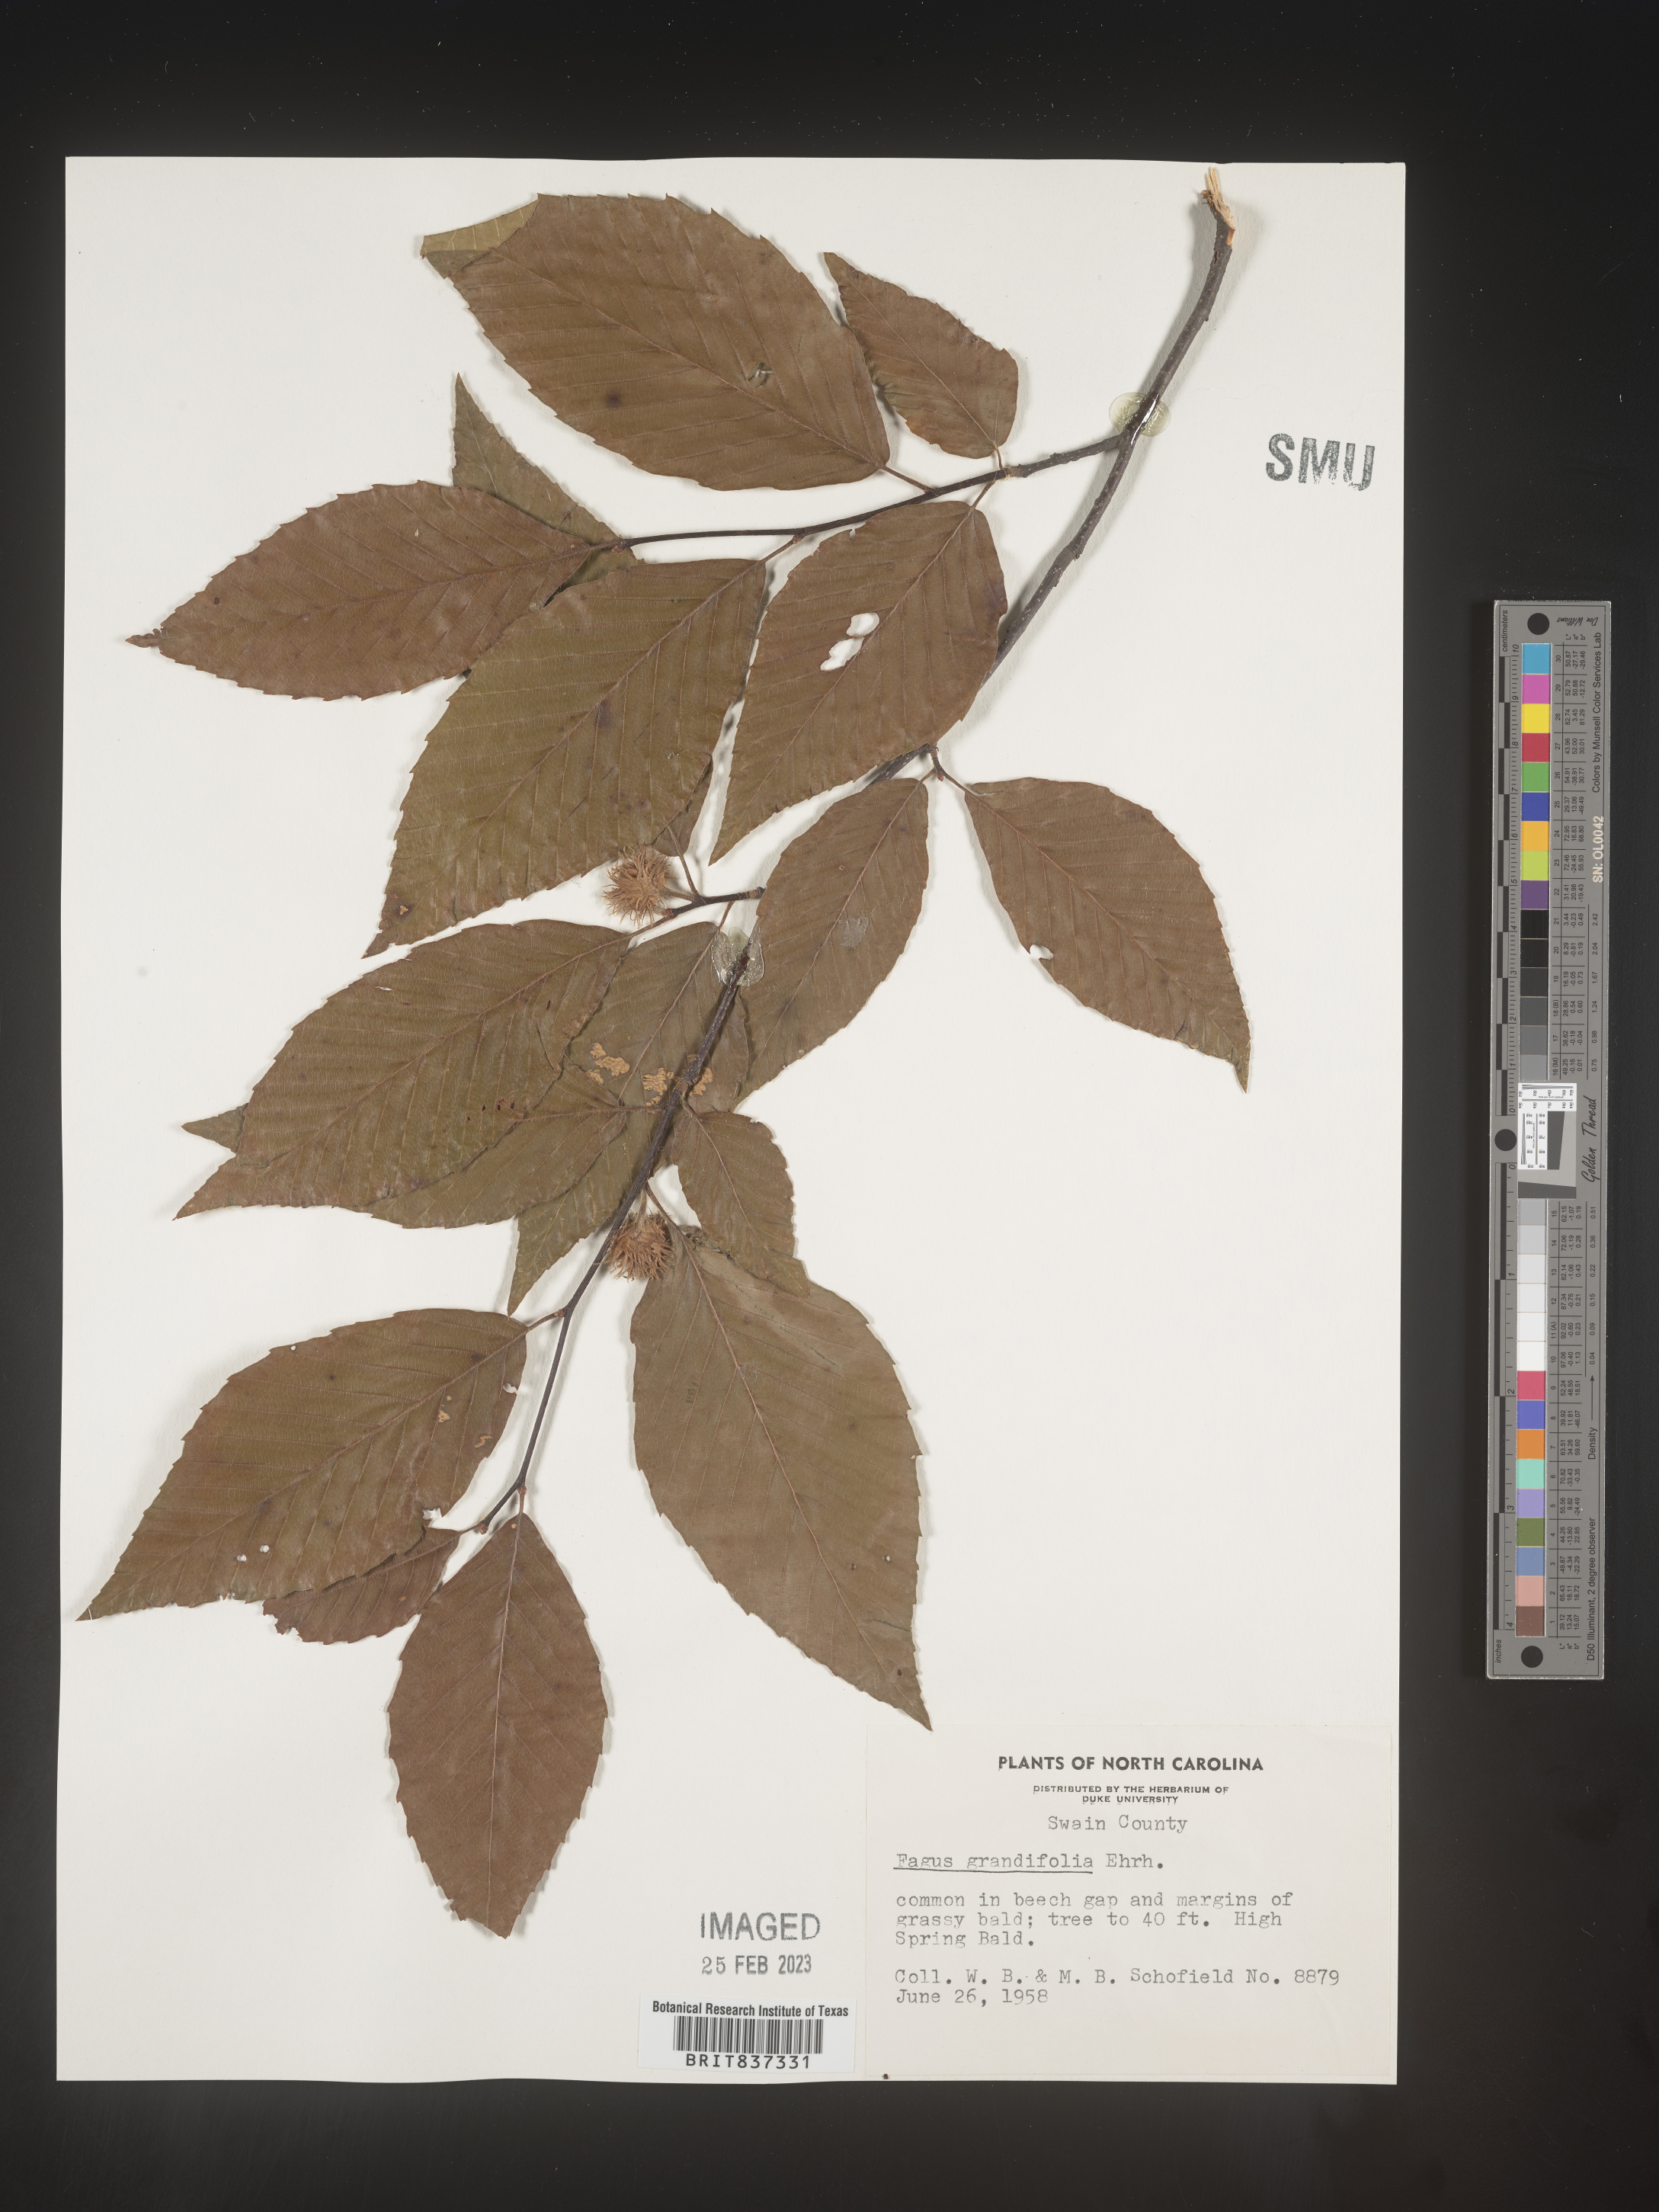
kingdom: Plantae
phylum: Tracheophyta
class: Magnoliopsida
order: Fagales
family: Fagaceae
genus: Fagus
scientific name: Fagus grandifolia
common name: American beech
